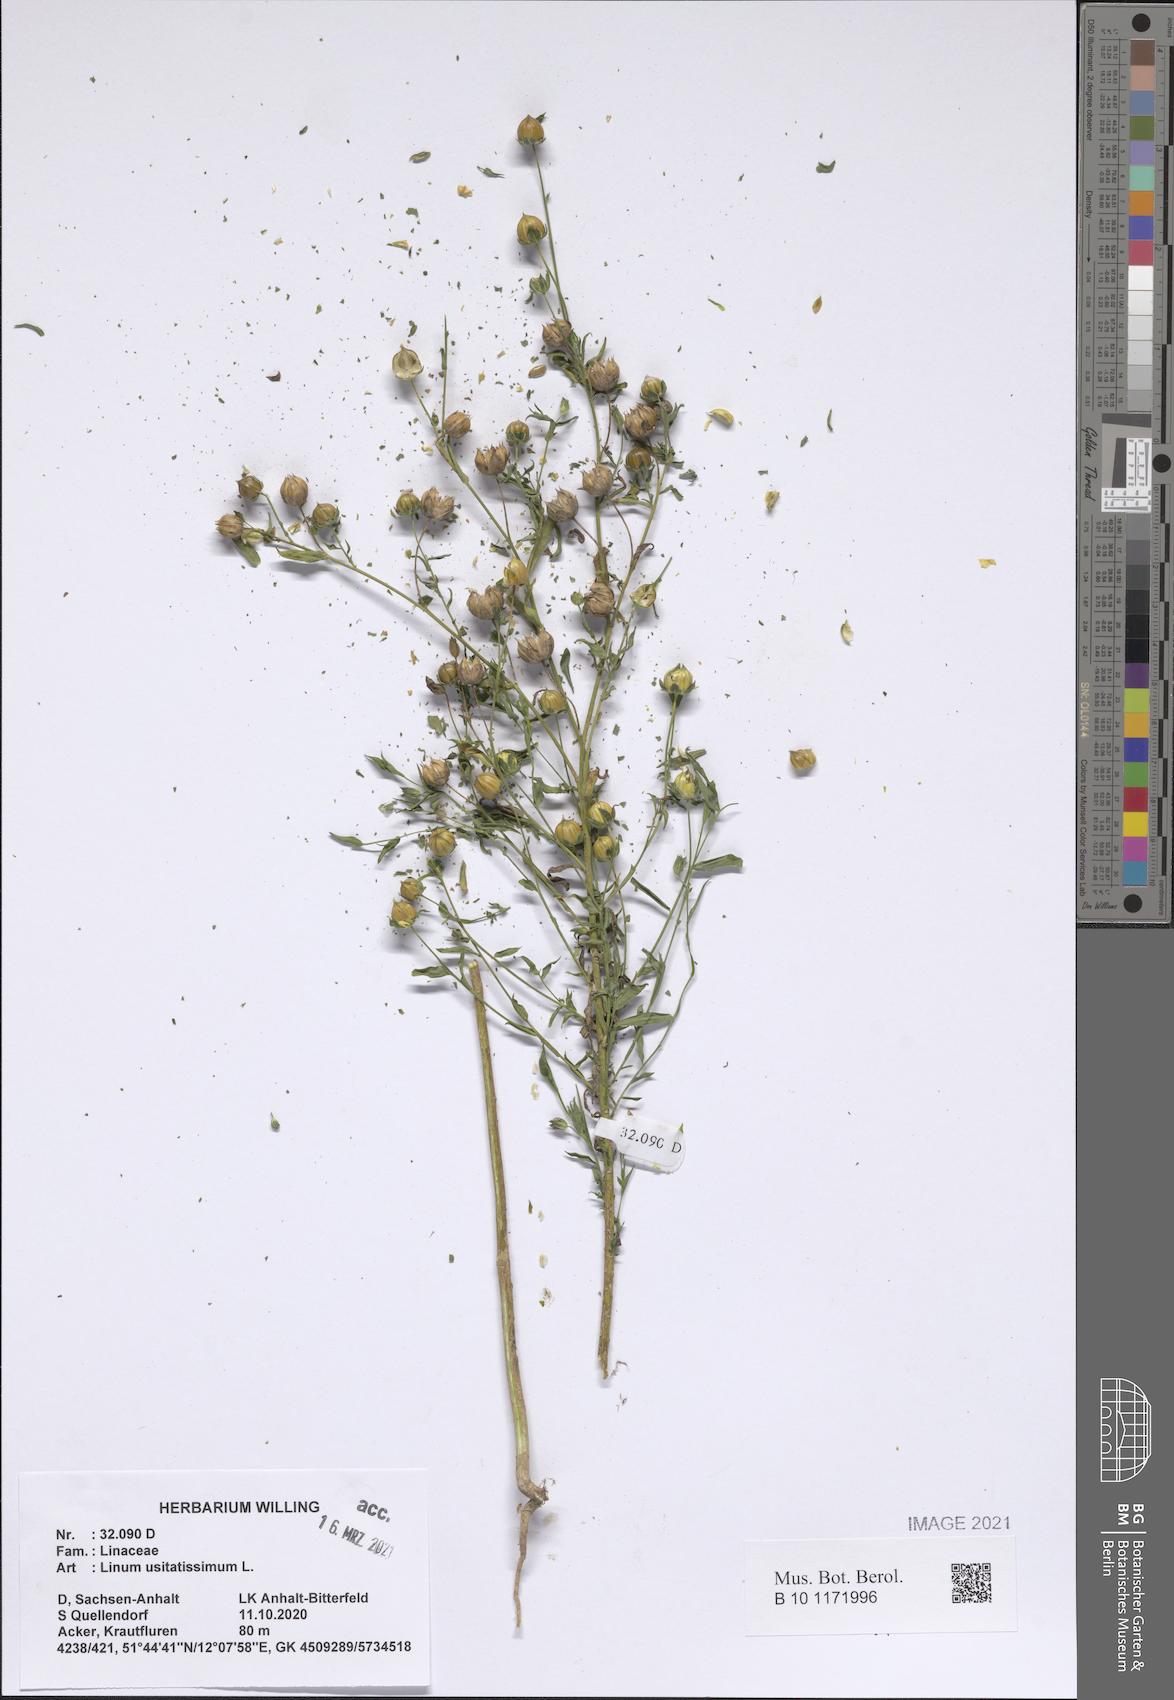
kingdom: Plantae
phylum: Tracheophyta
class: Magnoliopsida
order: Malpighiales
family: Linaceae
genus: Linum
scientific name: Linum usitatissimum
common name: Flax
